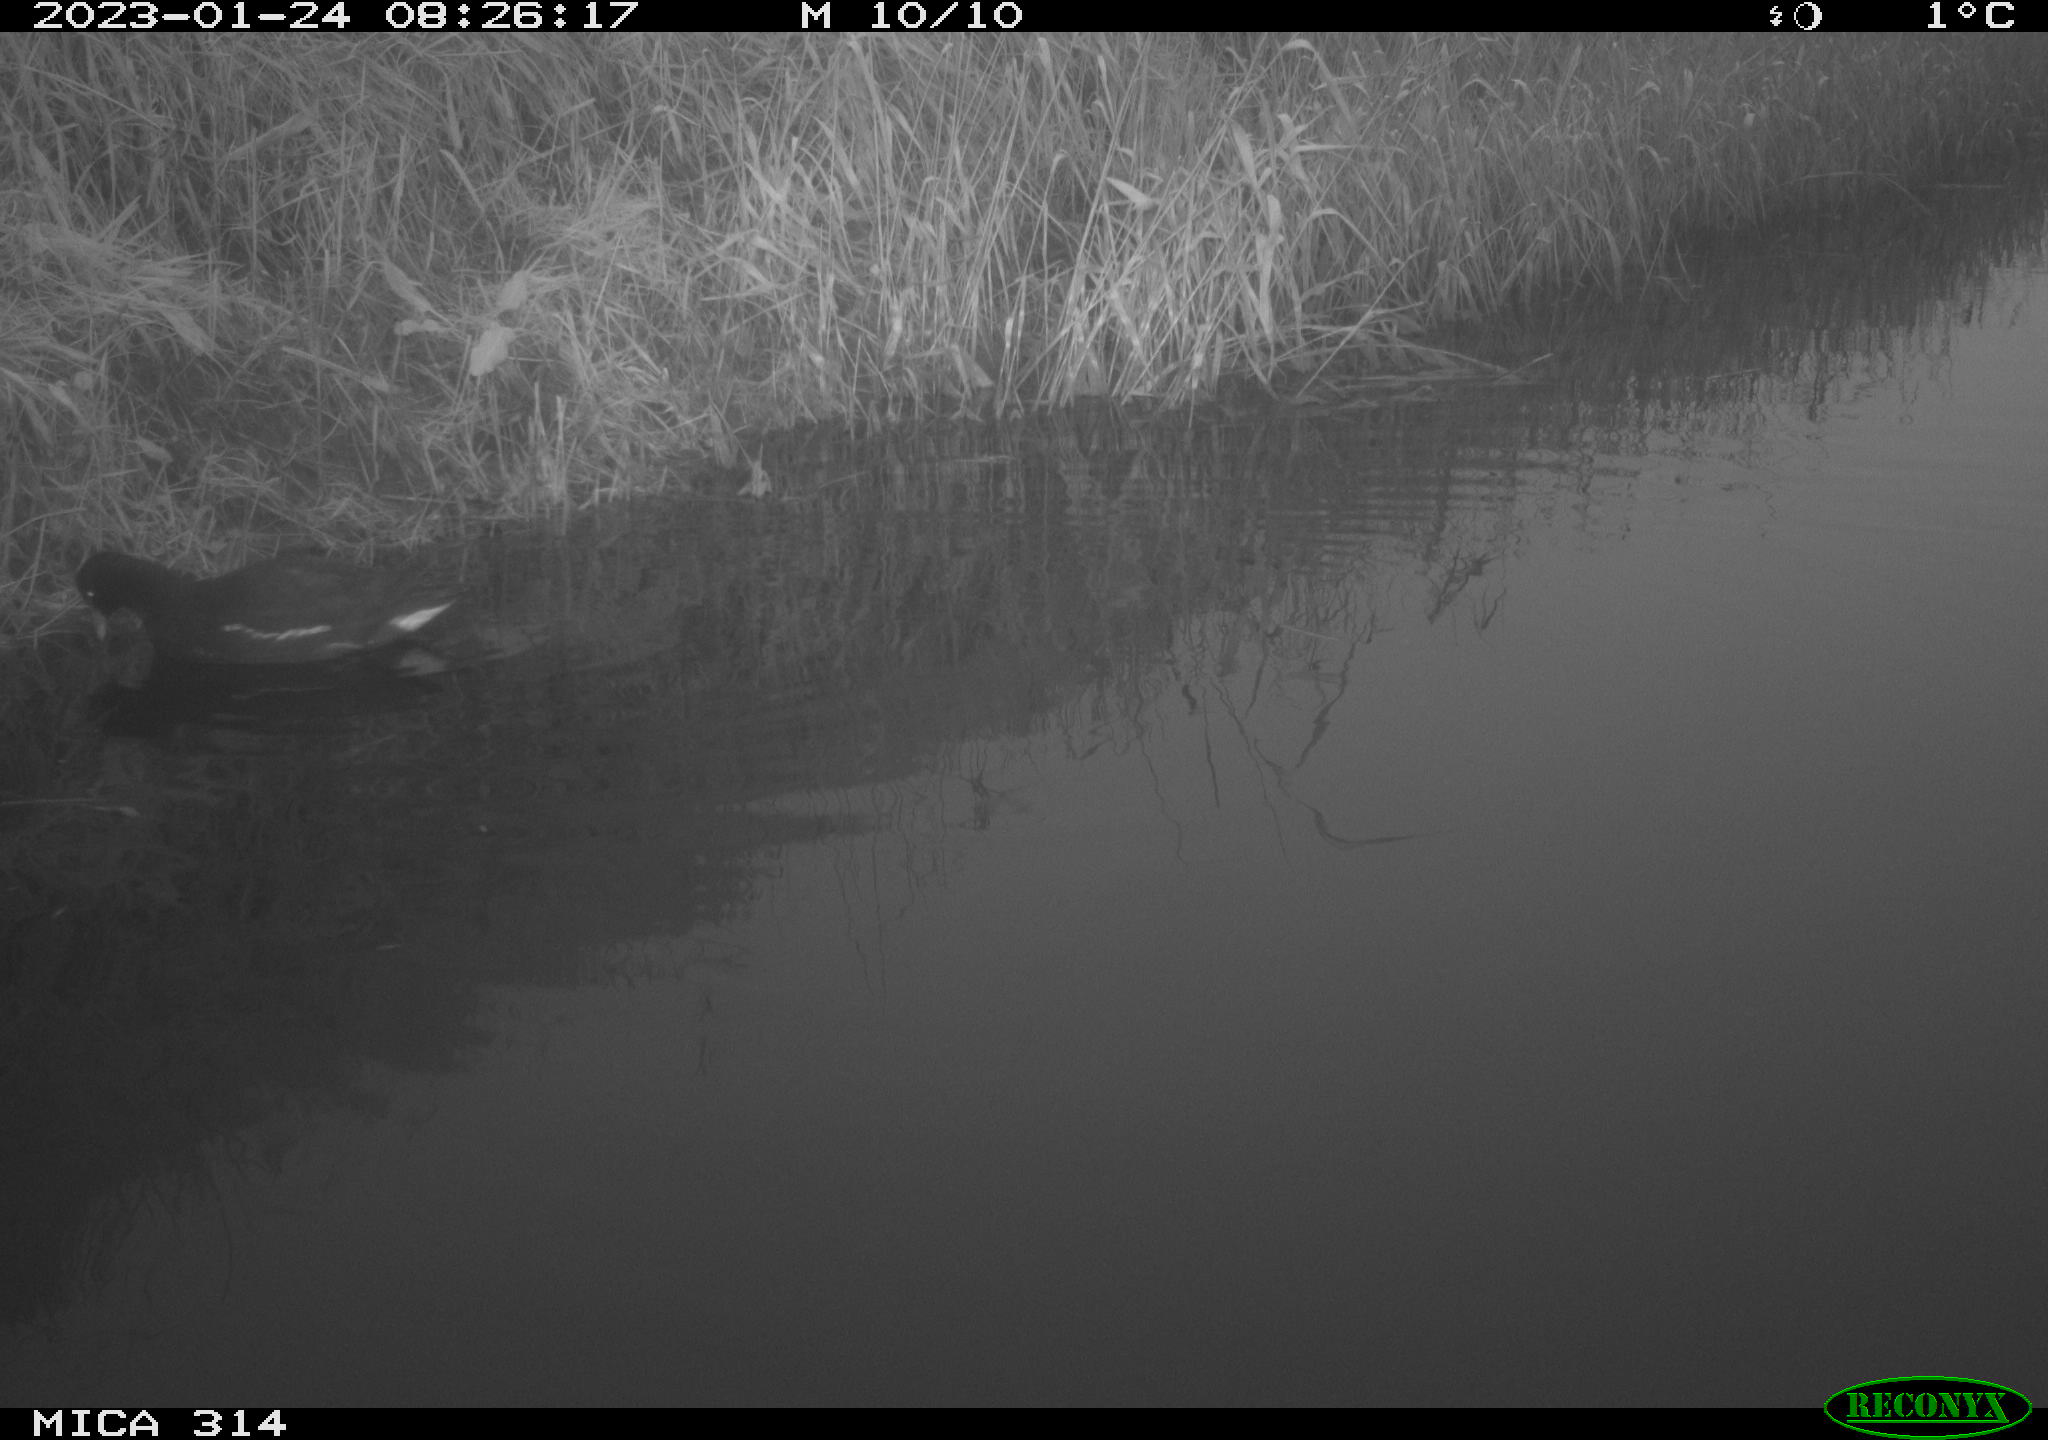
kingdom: Animalia
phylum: Chordata
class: Aves
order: Gruiformes
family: Rallidae
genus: Gallinula
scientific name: Gallinula chloropus
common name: Common moorhen
